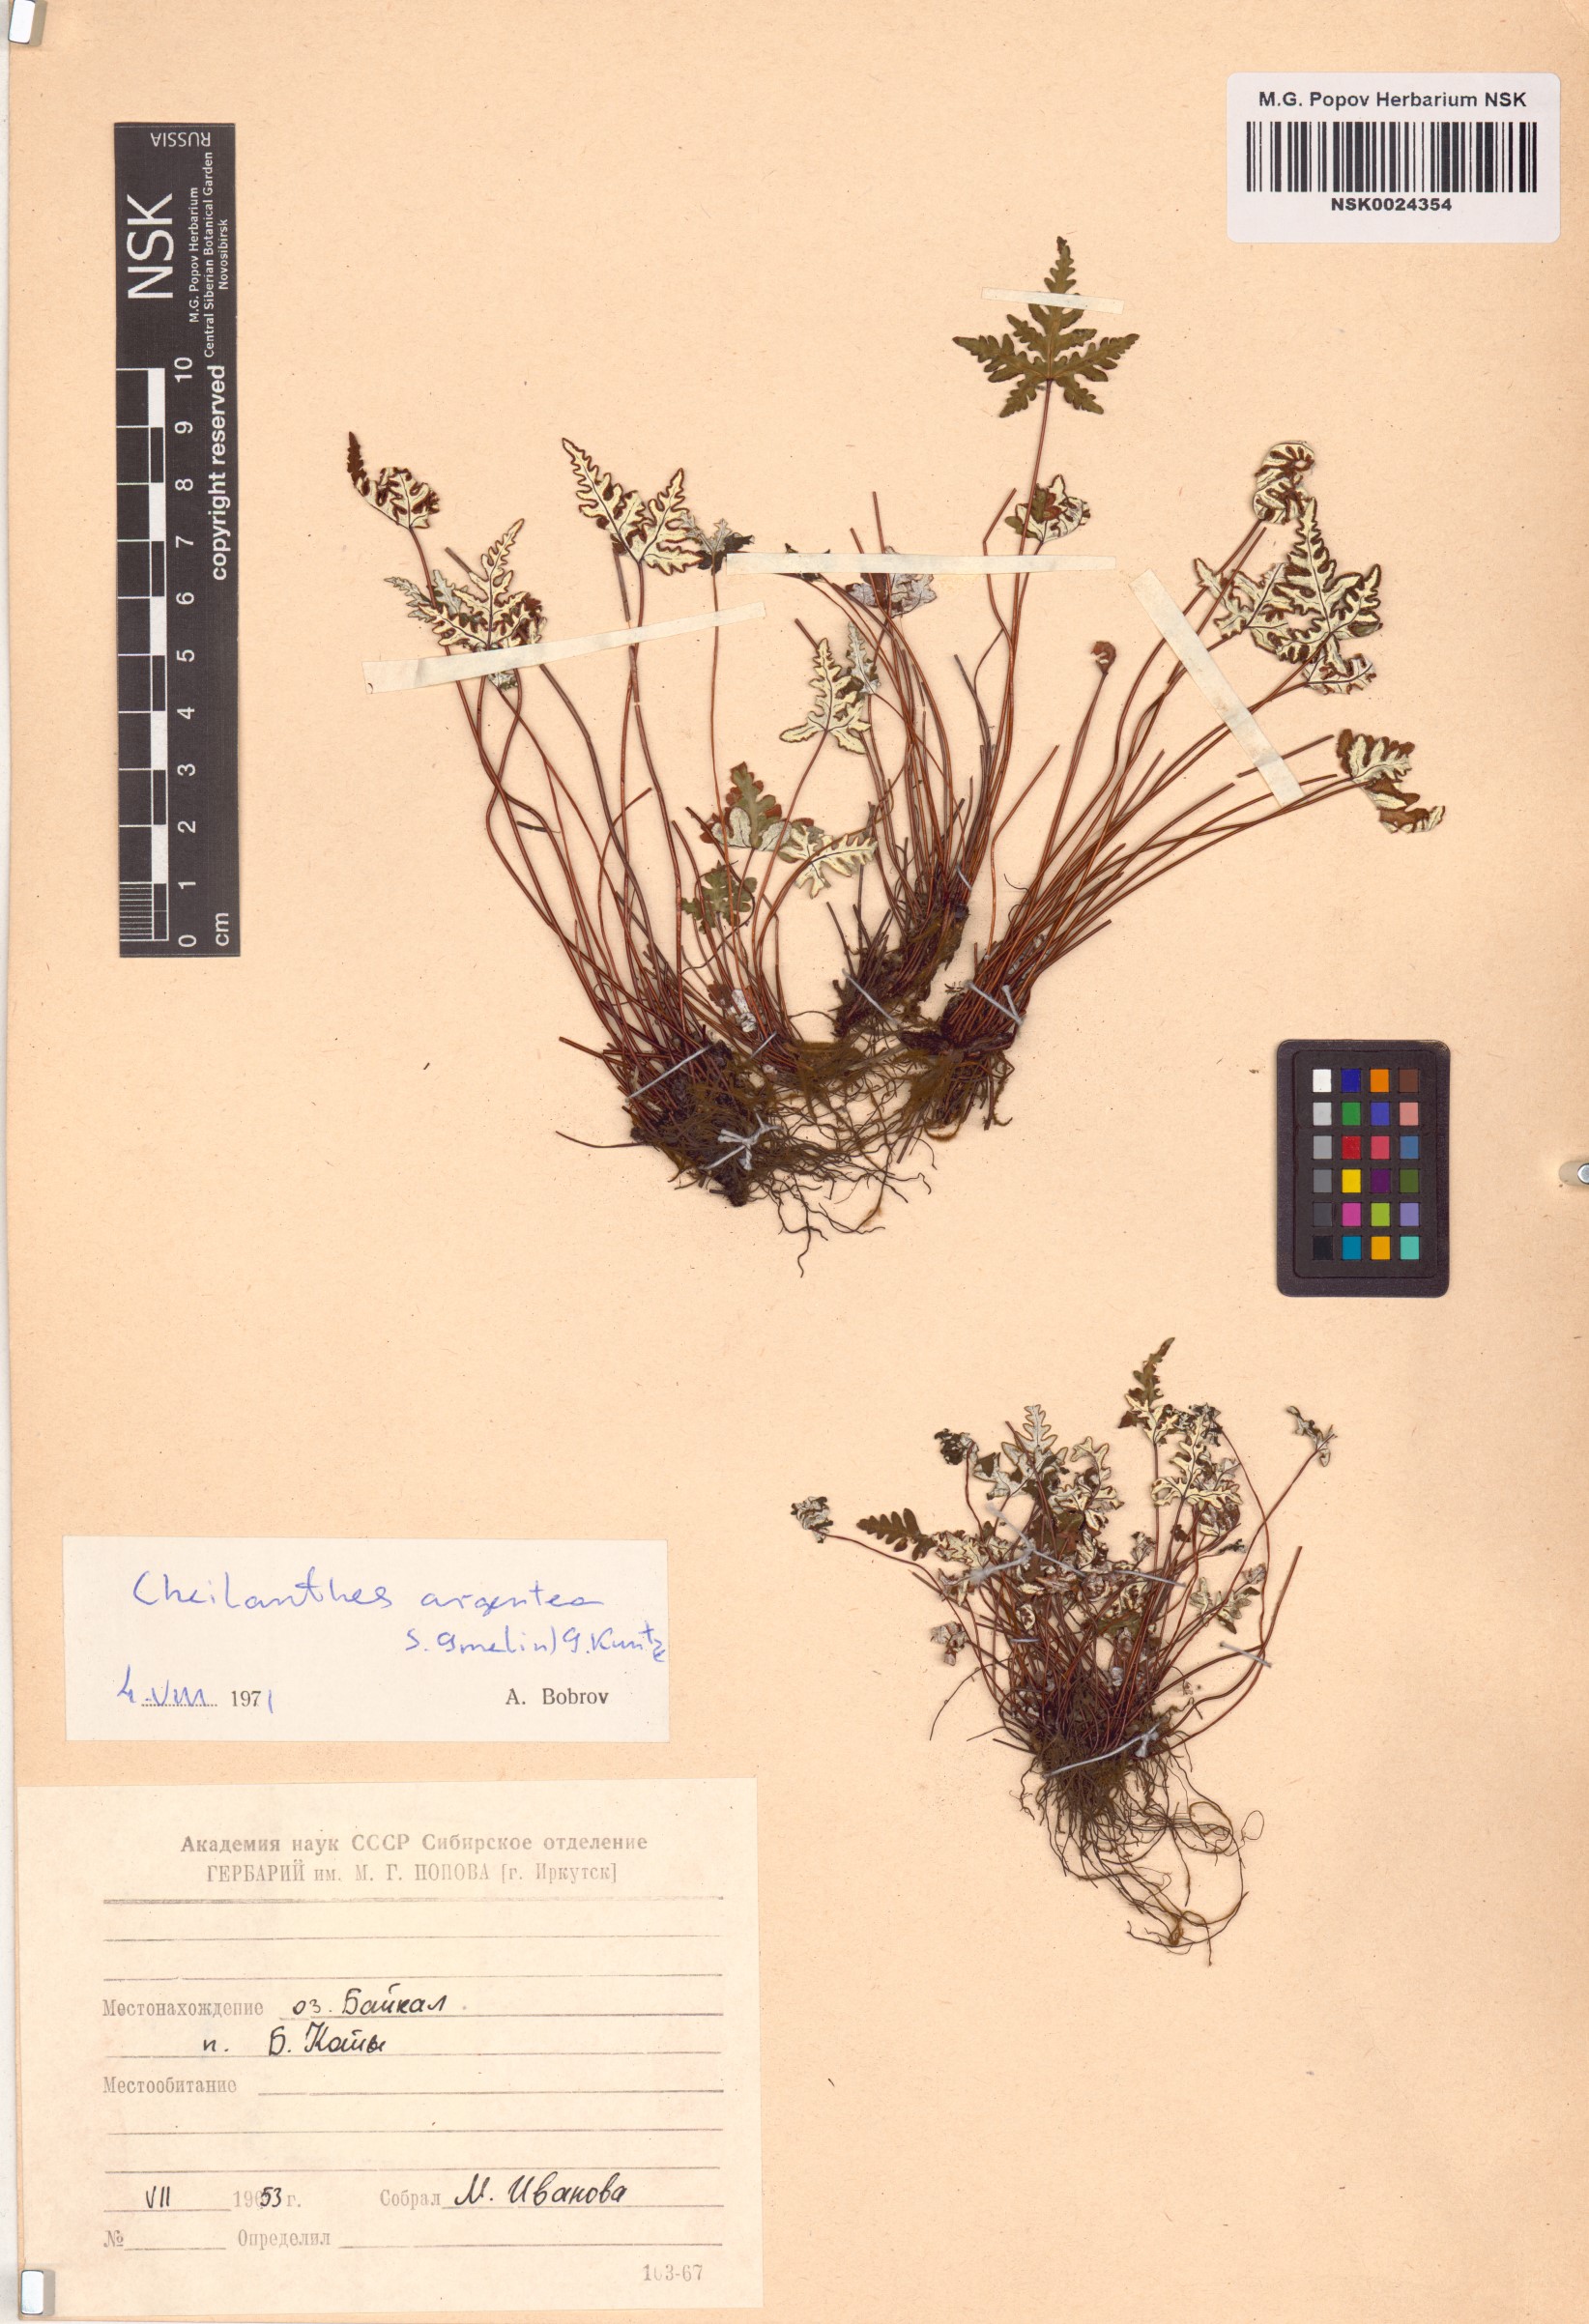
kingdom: Plantae
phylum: Tracheophyta
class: Polypodiopsida
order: Polypodiales
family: Pteridaceae
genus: Aleuritopteris
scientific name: Aleuritopteris argentea
